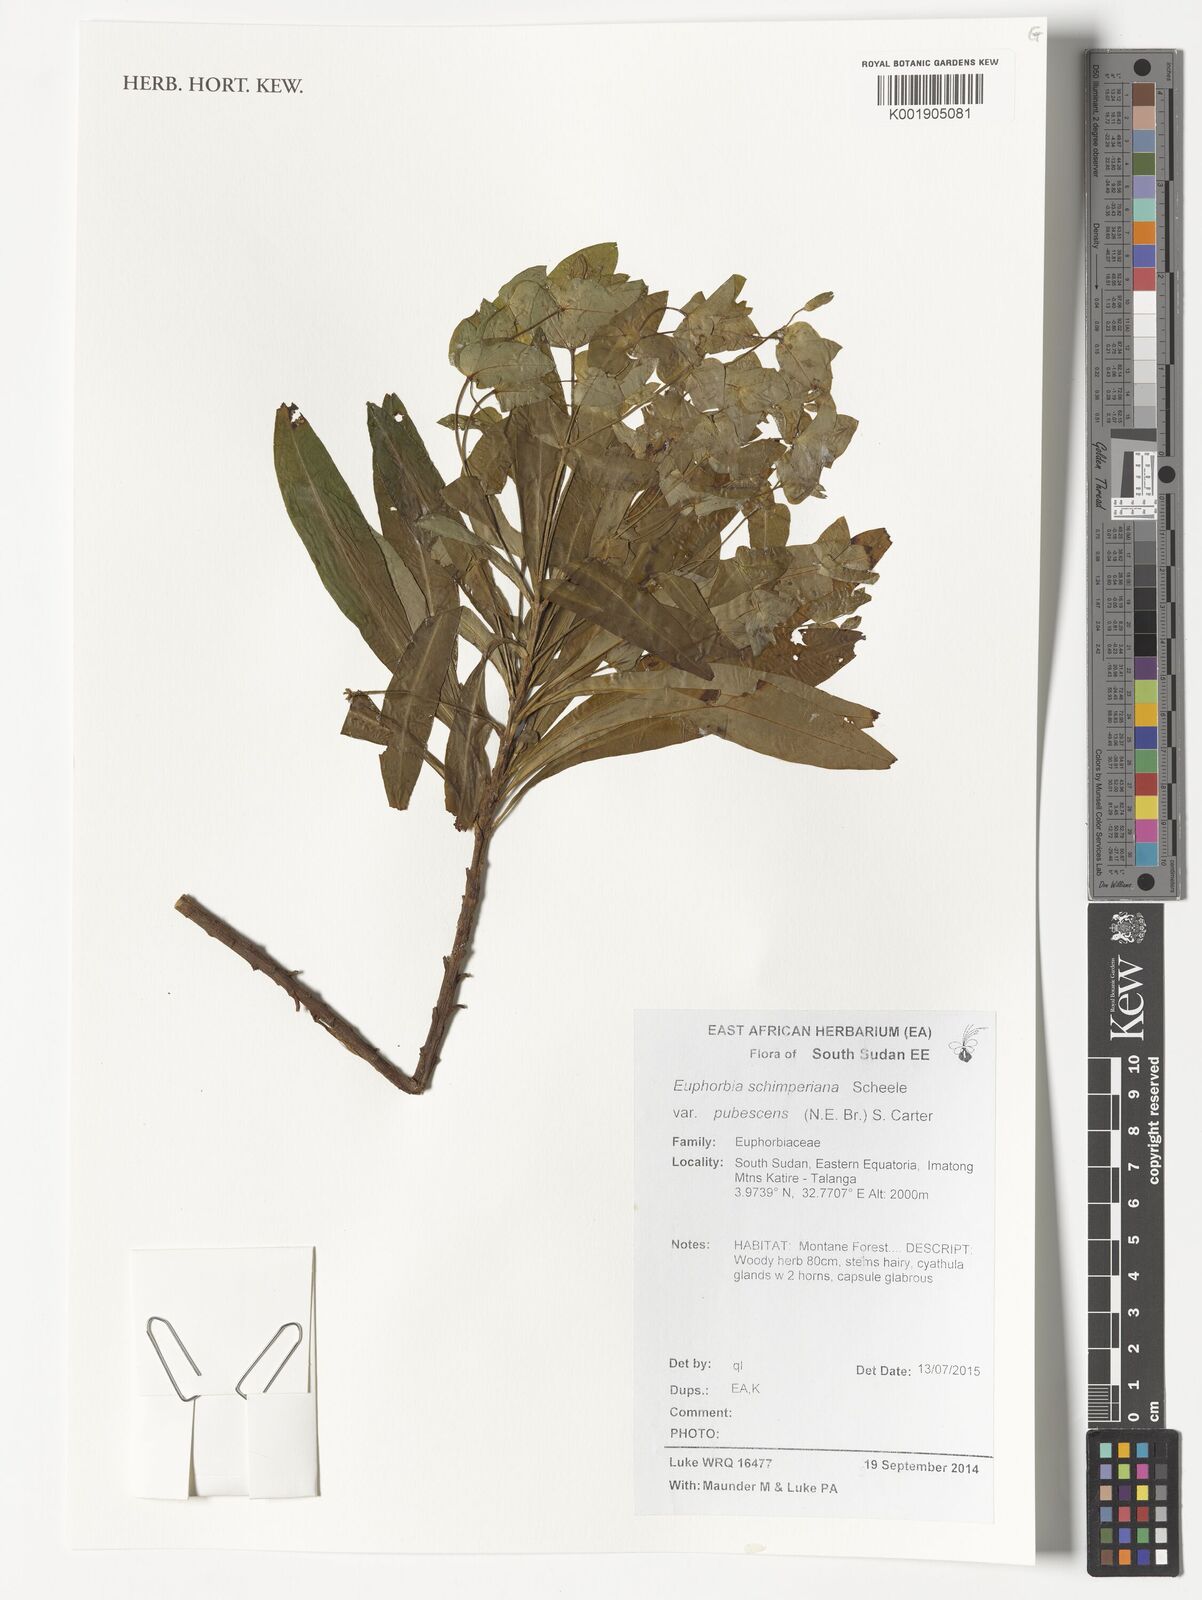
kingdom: Plantae
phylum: Tracheophyta
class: Magnoliopsida
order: Malpighiales
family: Euphorbiaceae
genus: Euphorbia
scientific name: Euphorbia schimperiana
